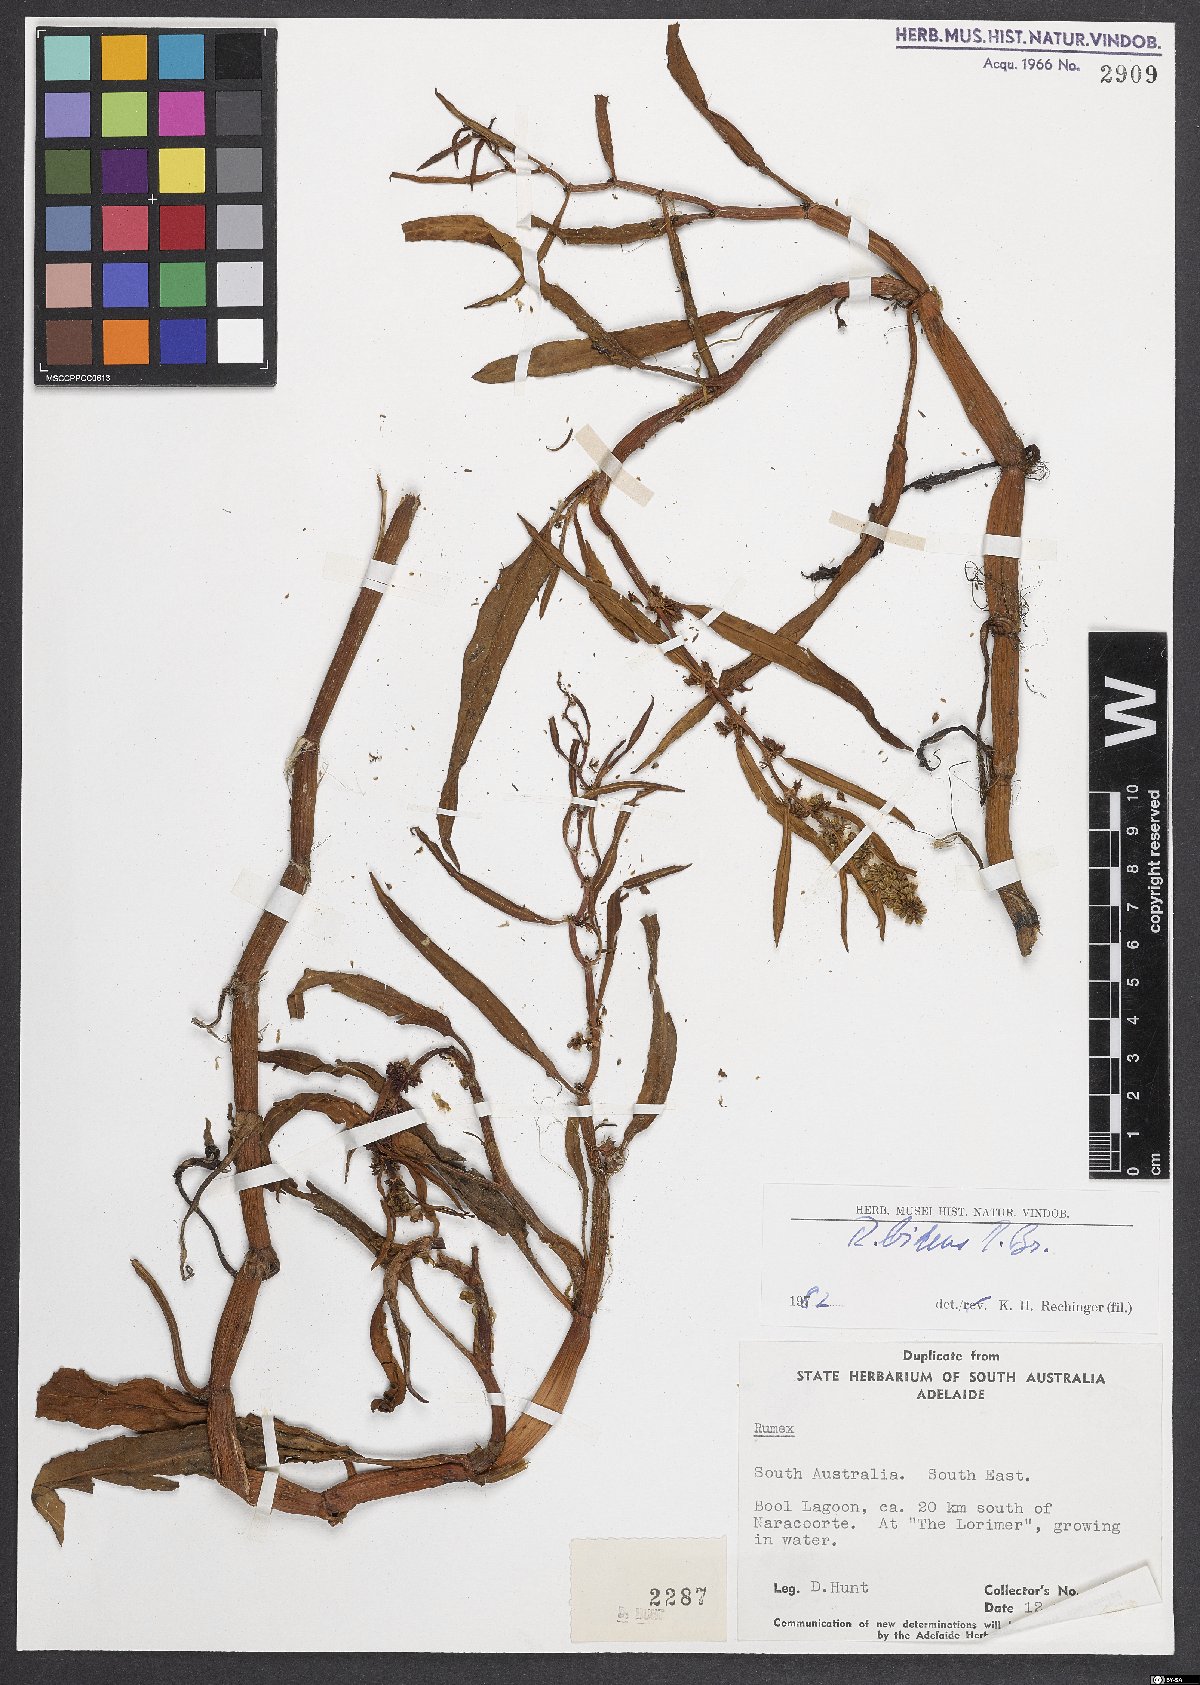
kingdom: Plantae
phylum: Tracheophyta
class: Magnoliopsida
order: Caryophyllales
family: Polygonaceae
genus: Rumex
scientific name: Rumex
